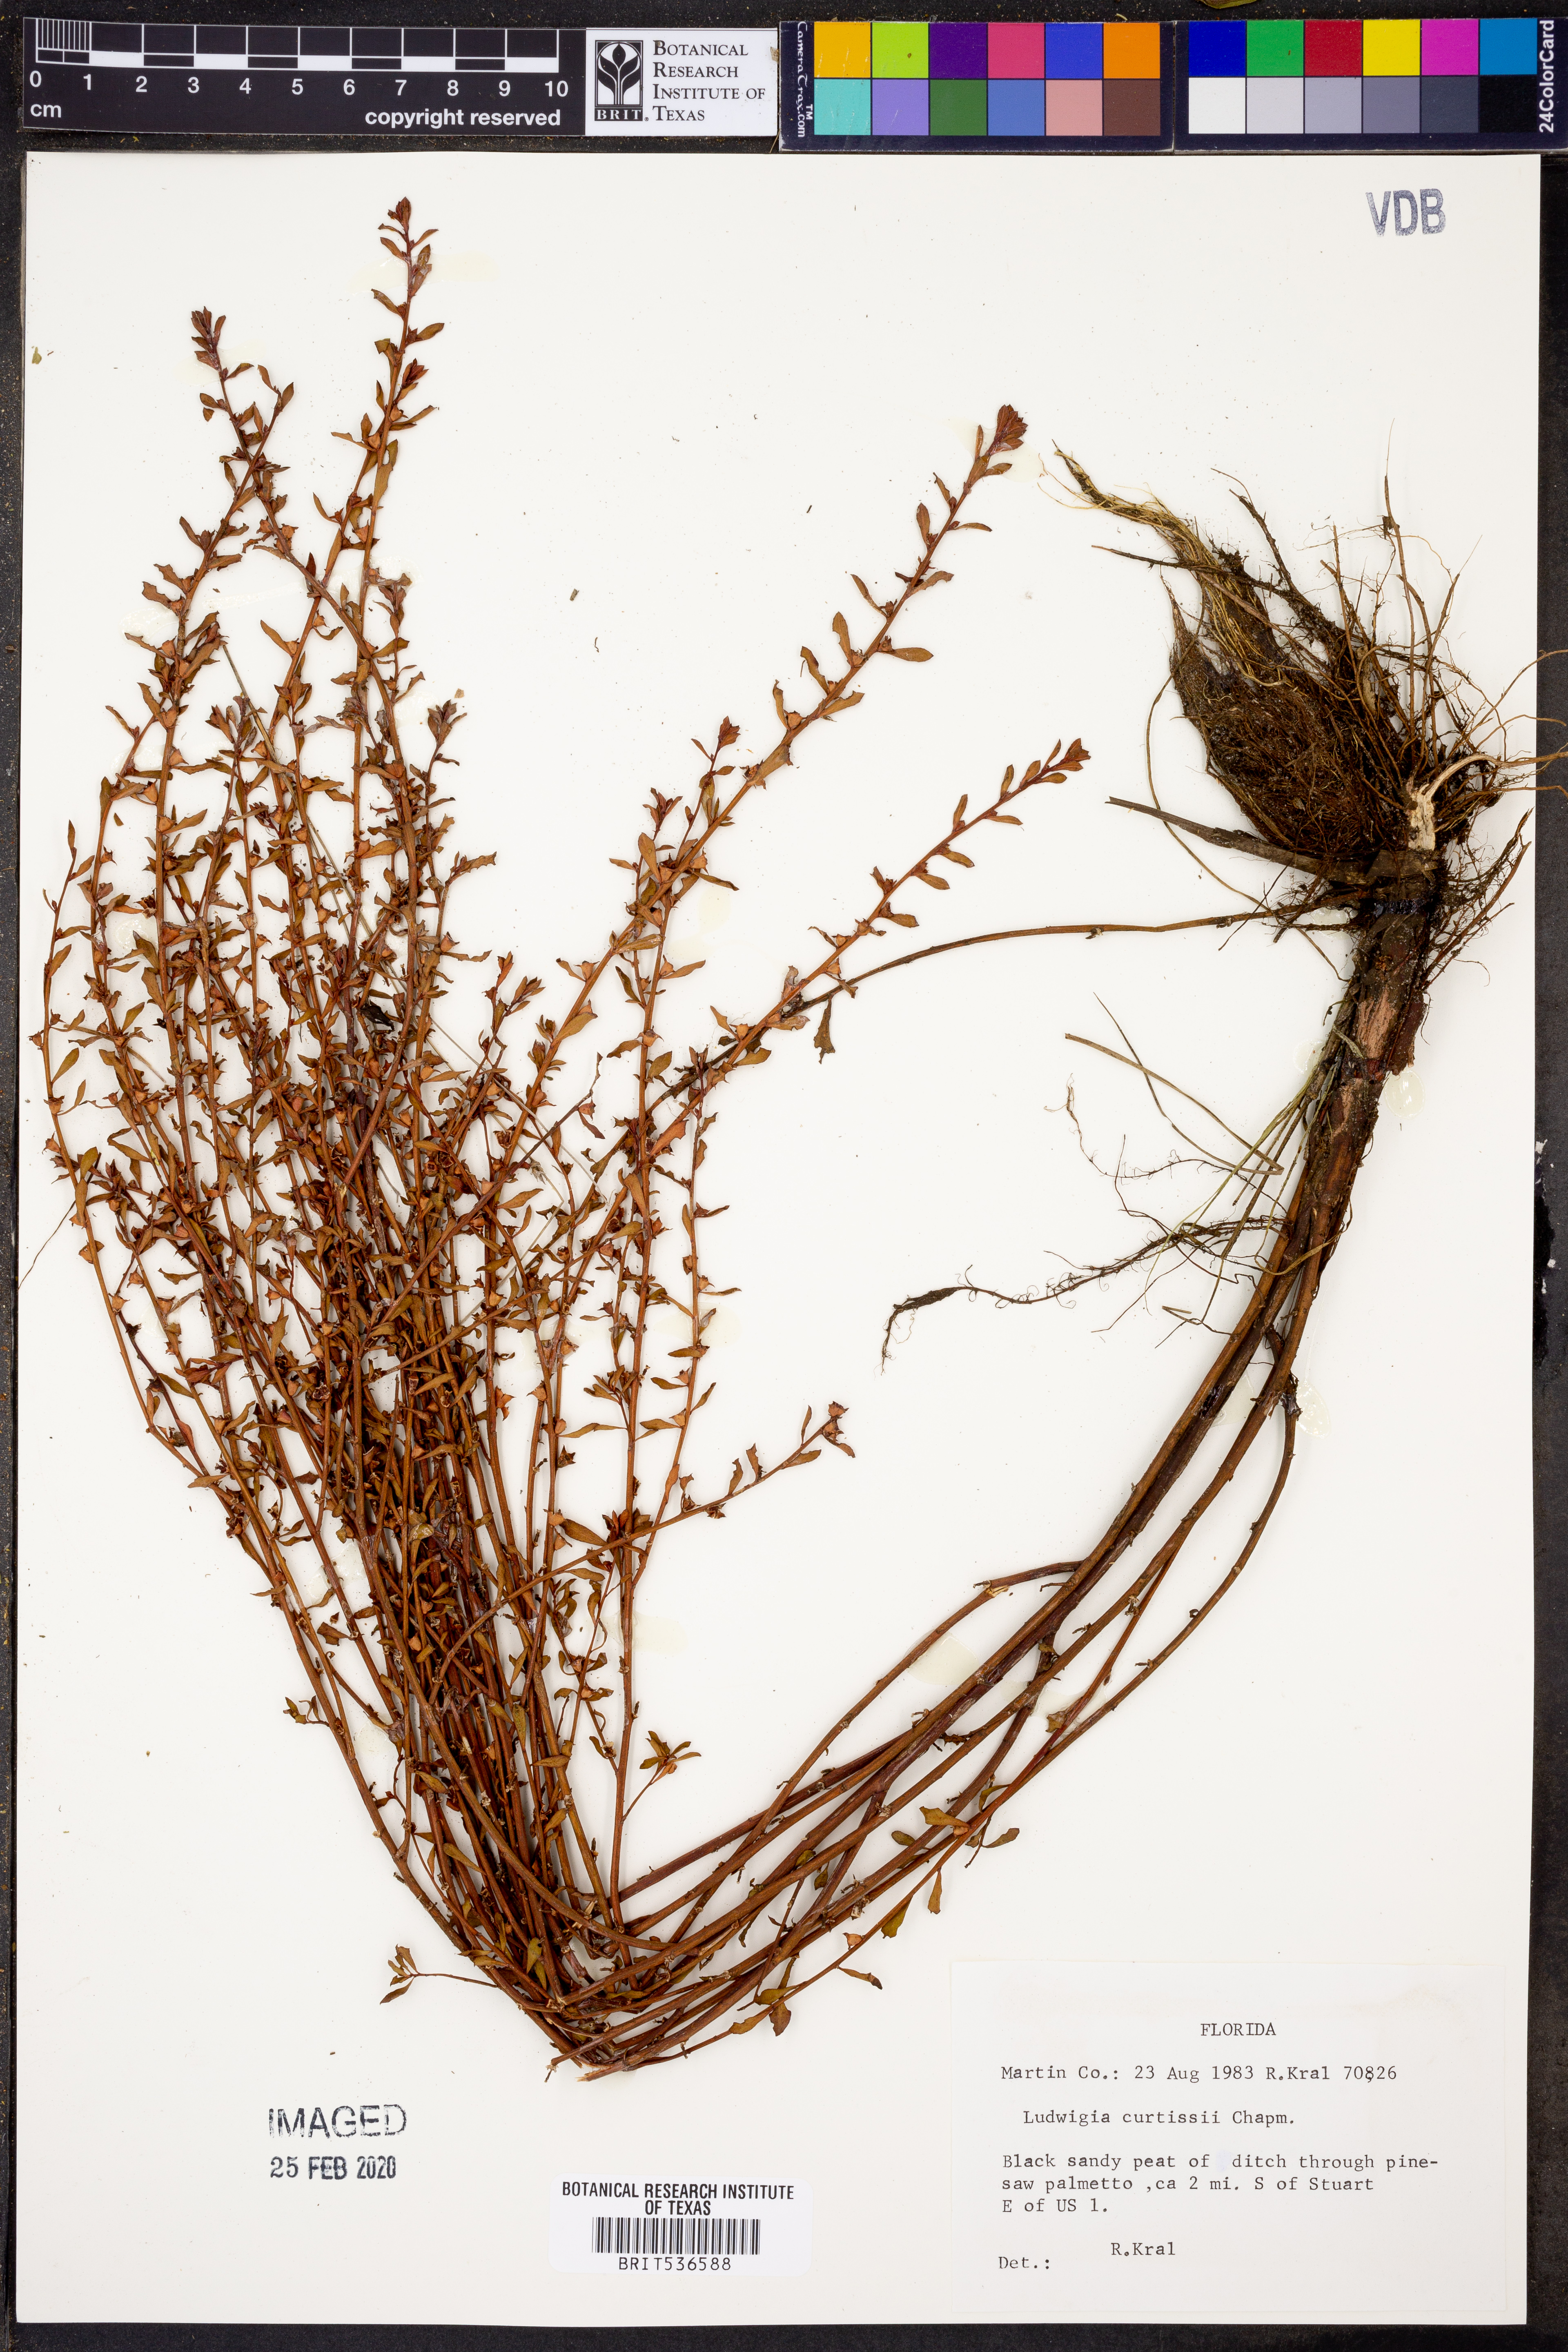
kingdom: Plantae
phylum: Tracheophyta
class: Magnoliopsida
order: Myrtales
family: Onagraceae
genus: Ludwigia
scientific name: Ludwigia curtissii
